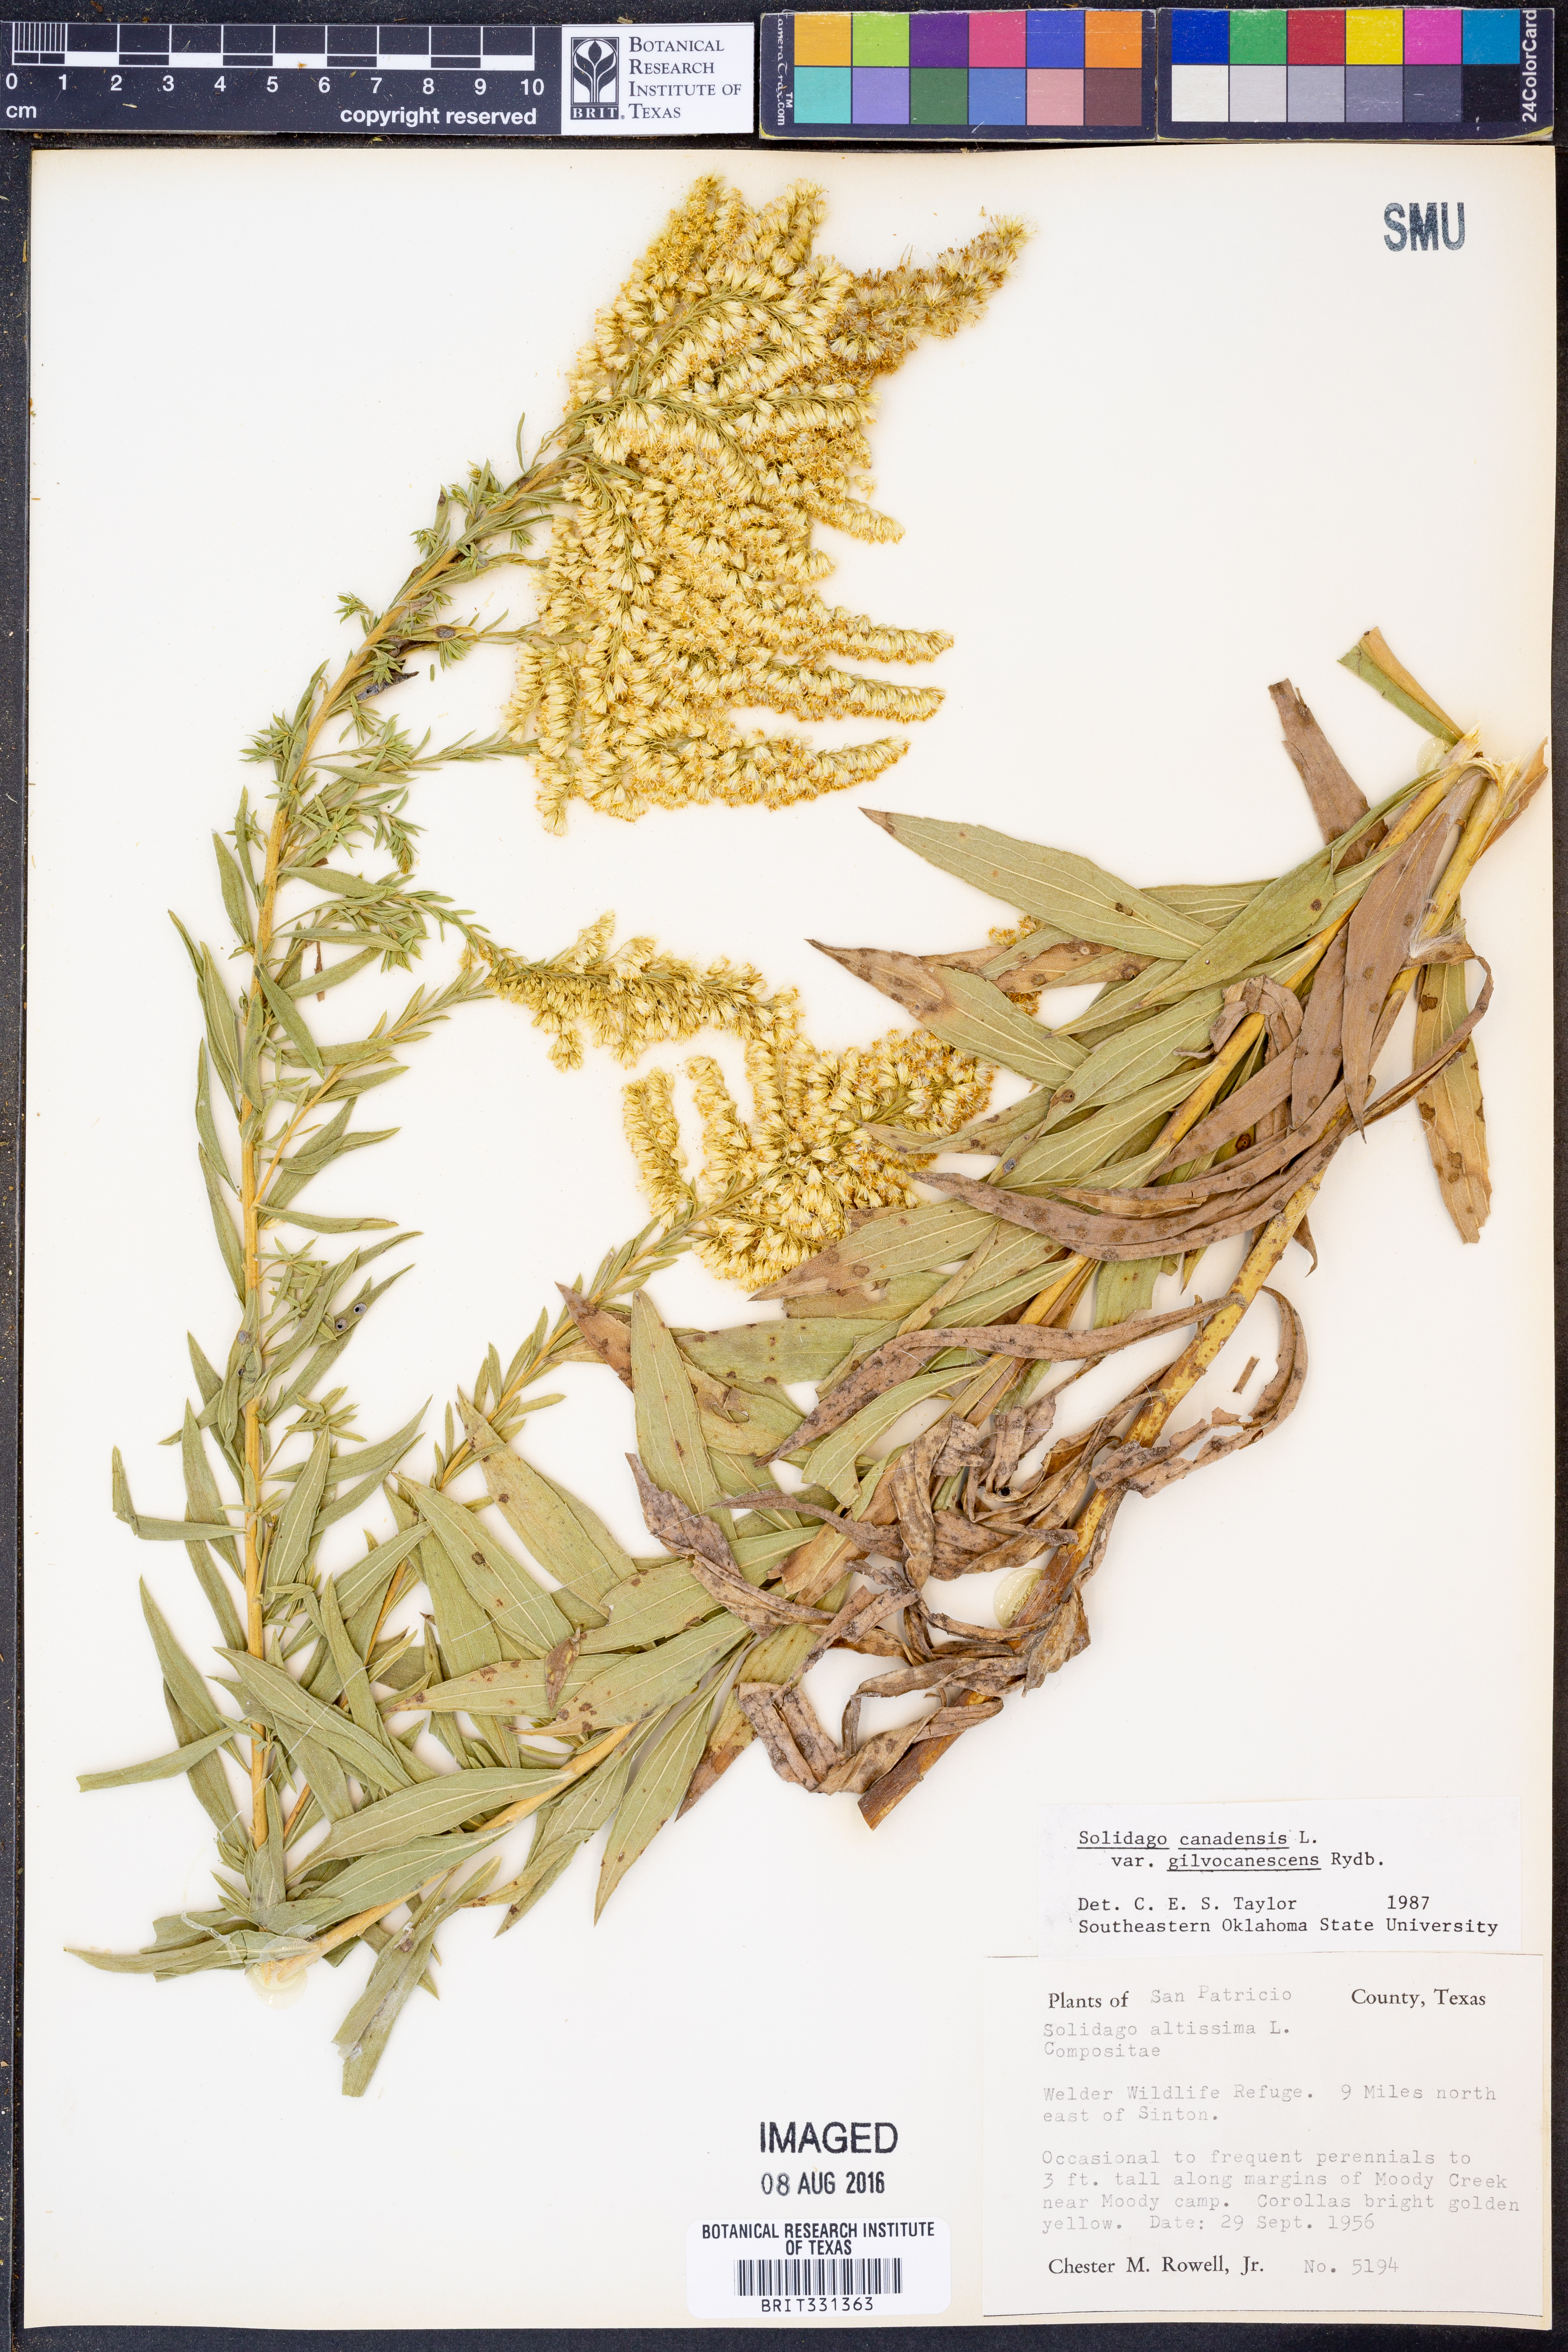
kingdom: Plantae
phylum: Tracheophyta
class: Magnoliopsida
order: Asterales
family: Asteraceae
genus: Solidago
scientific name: Solidago altissima
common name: Late goldenrod
